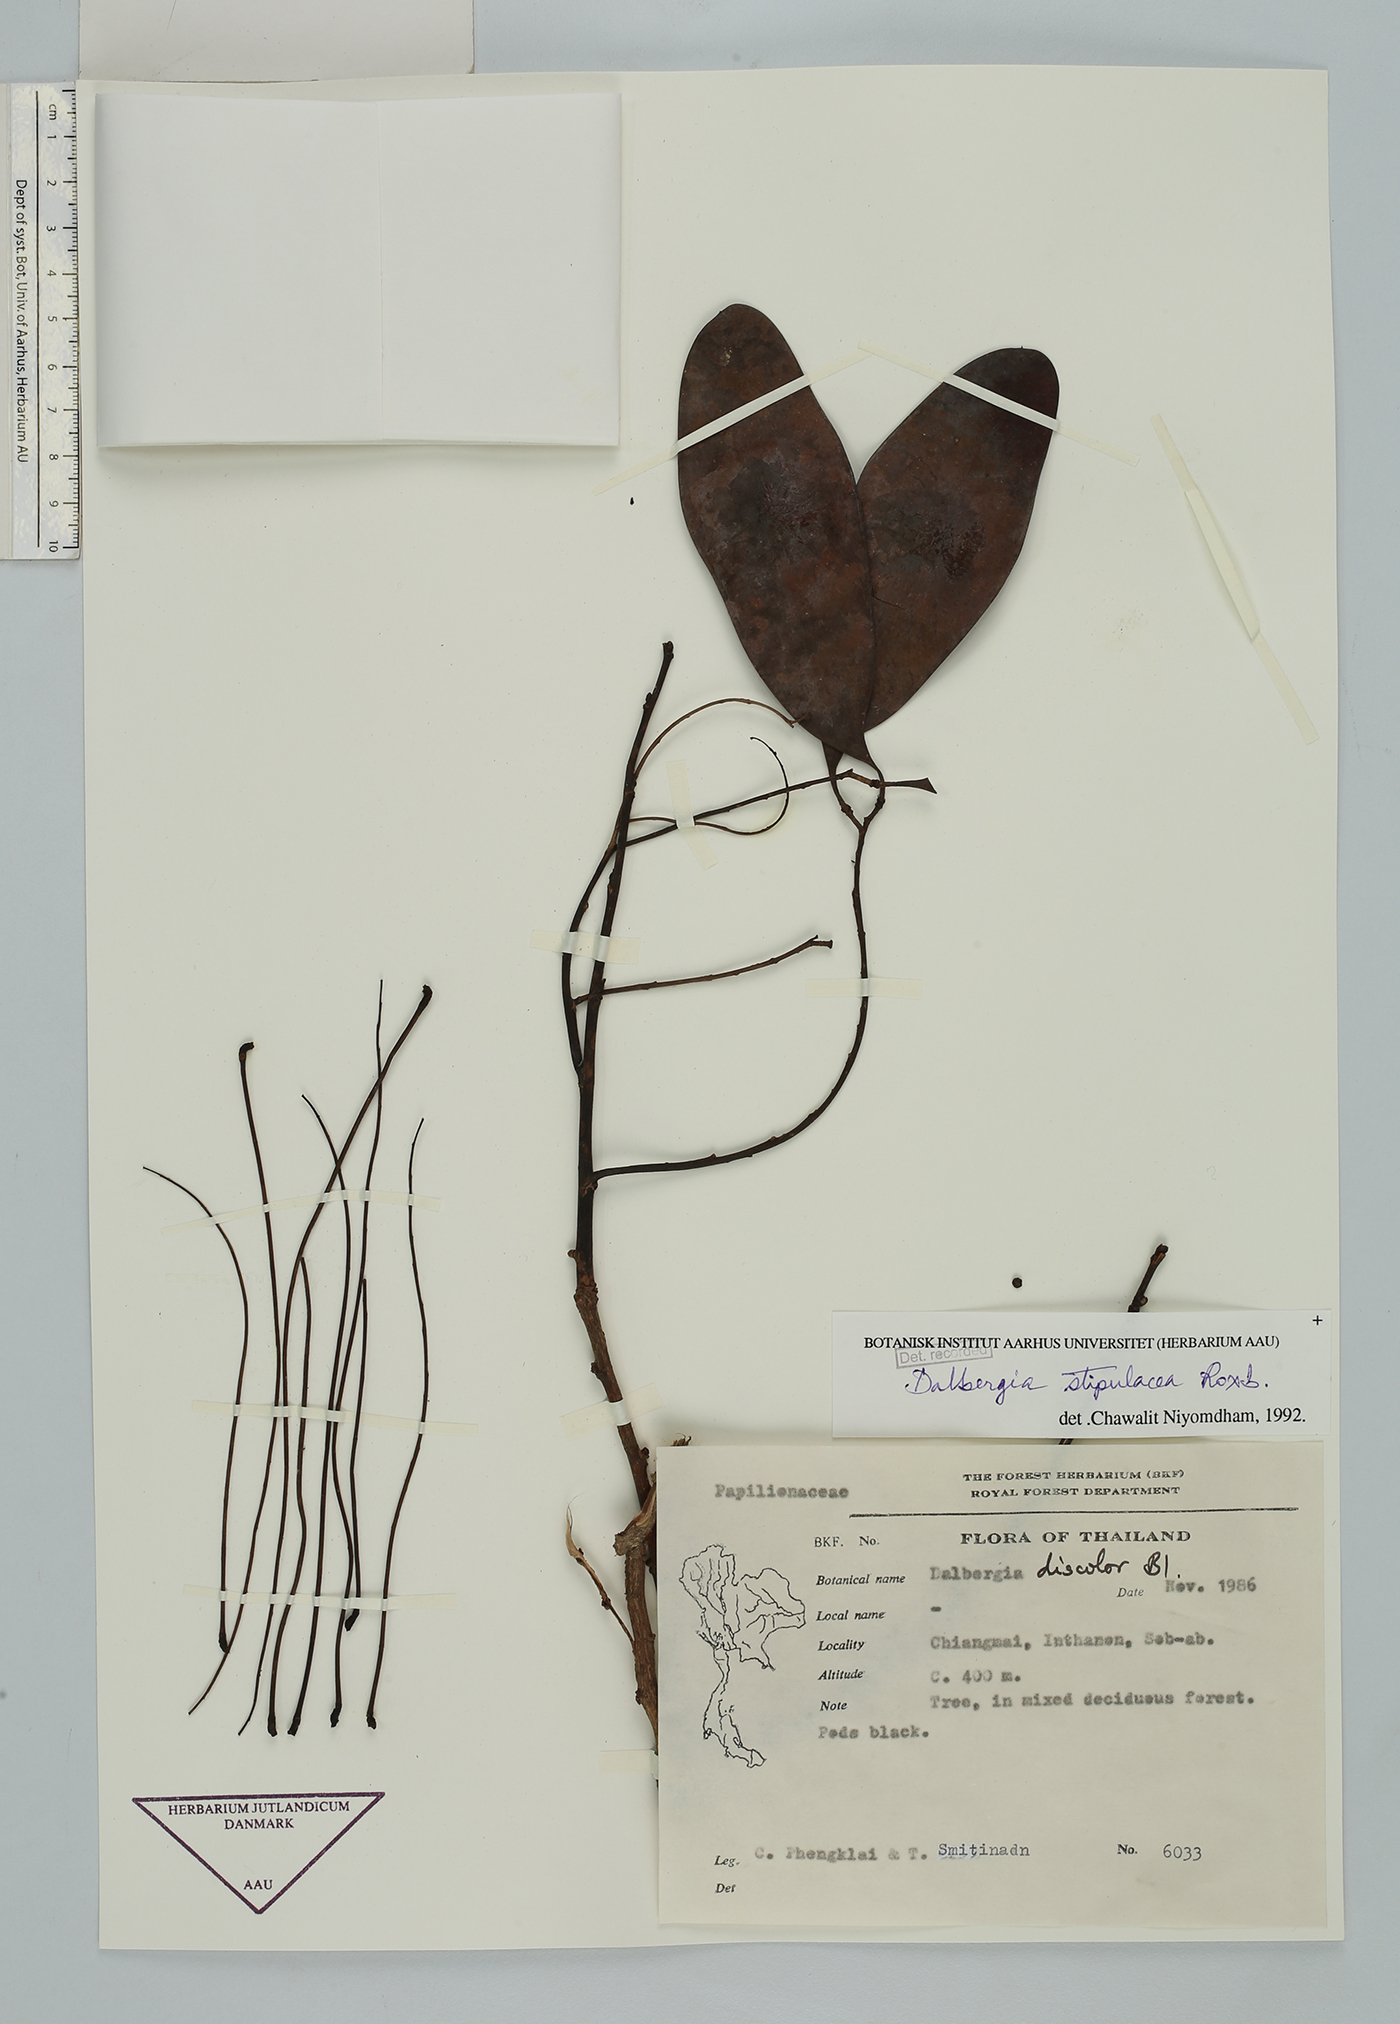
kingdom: Plantae
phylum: Tracheophyta
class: Magnoliopsida
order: Fabales
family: Fabaceae
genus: Dalbergia
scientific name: Dalbergia stipulacea
